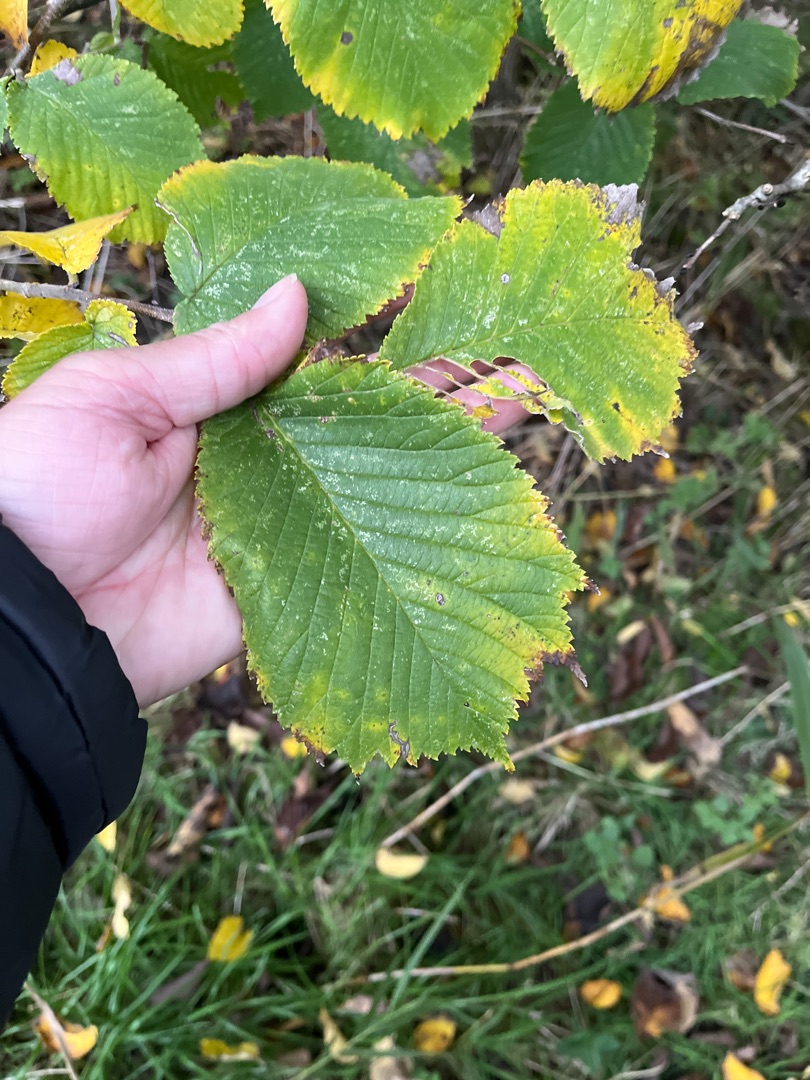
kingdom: Plantae
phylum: Tracheophyta
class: Magnoliopsida
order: Rosales
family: Ulmaceae
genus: Ulmus
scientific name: Ulmus glabra
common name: Skov-elm/storbladet elm
